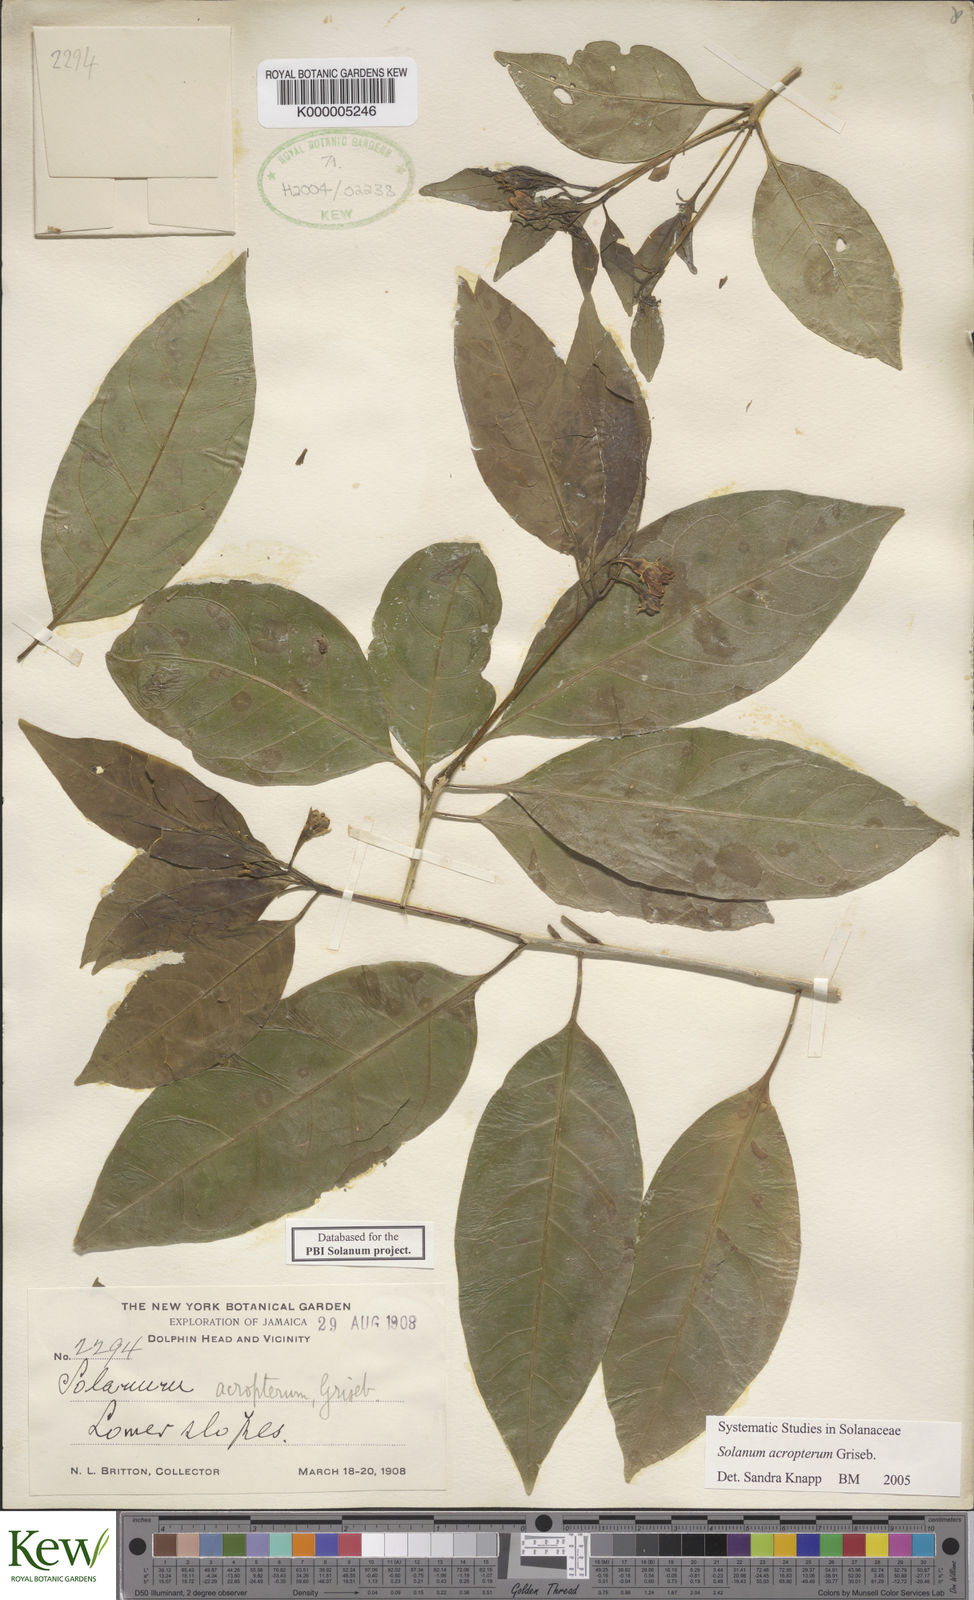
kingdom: Plantae
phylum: Tracheophyta
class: Magnoliopsida
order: Solanales
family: Solanaceae
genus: Solanum
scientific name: Solanum acropterum
